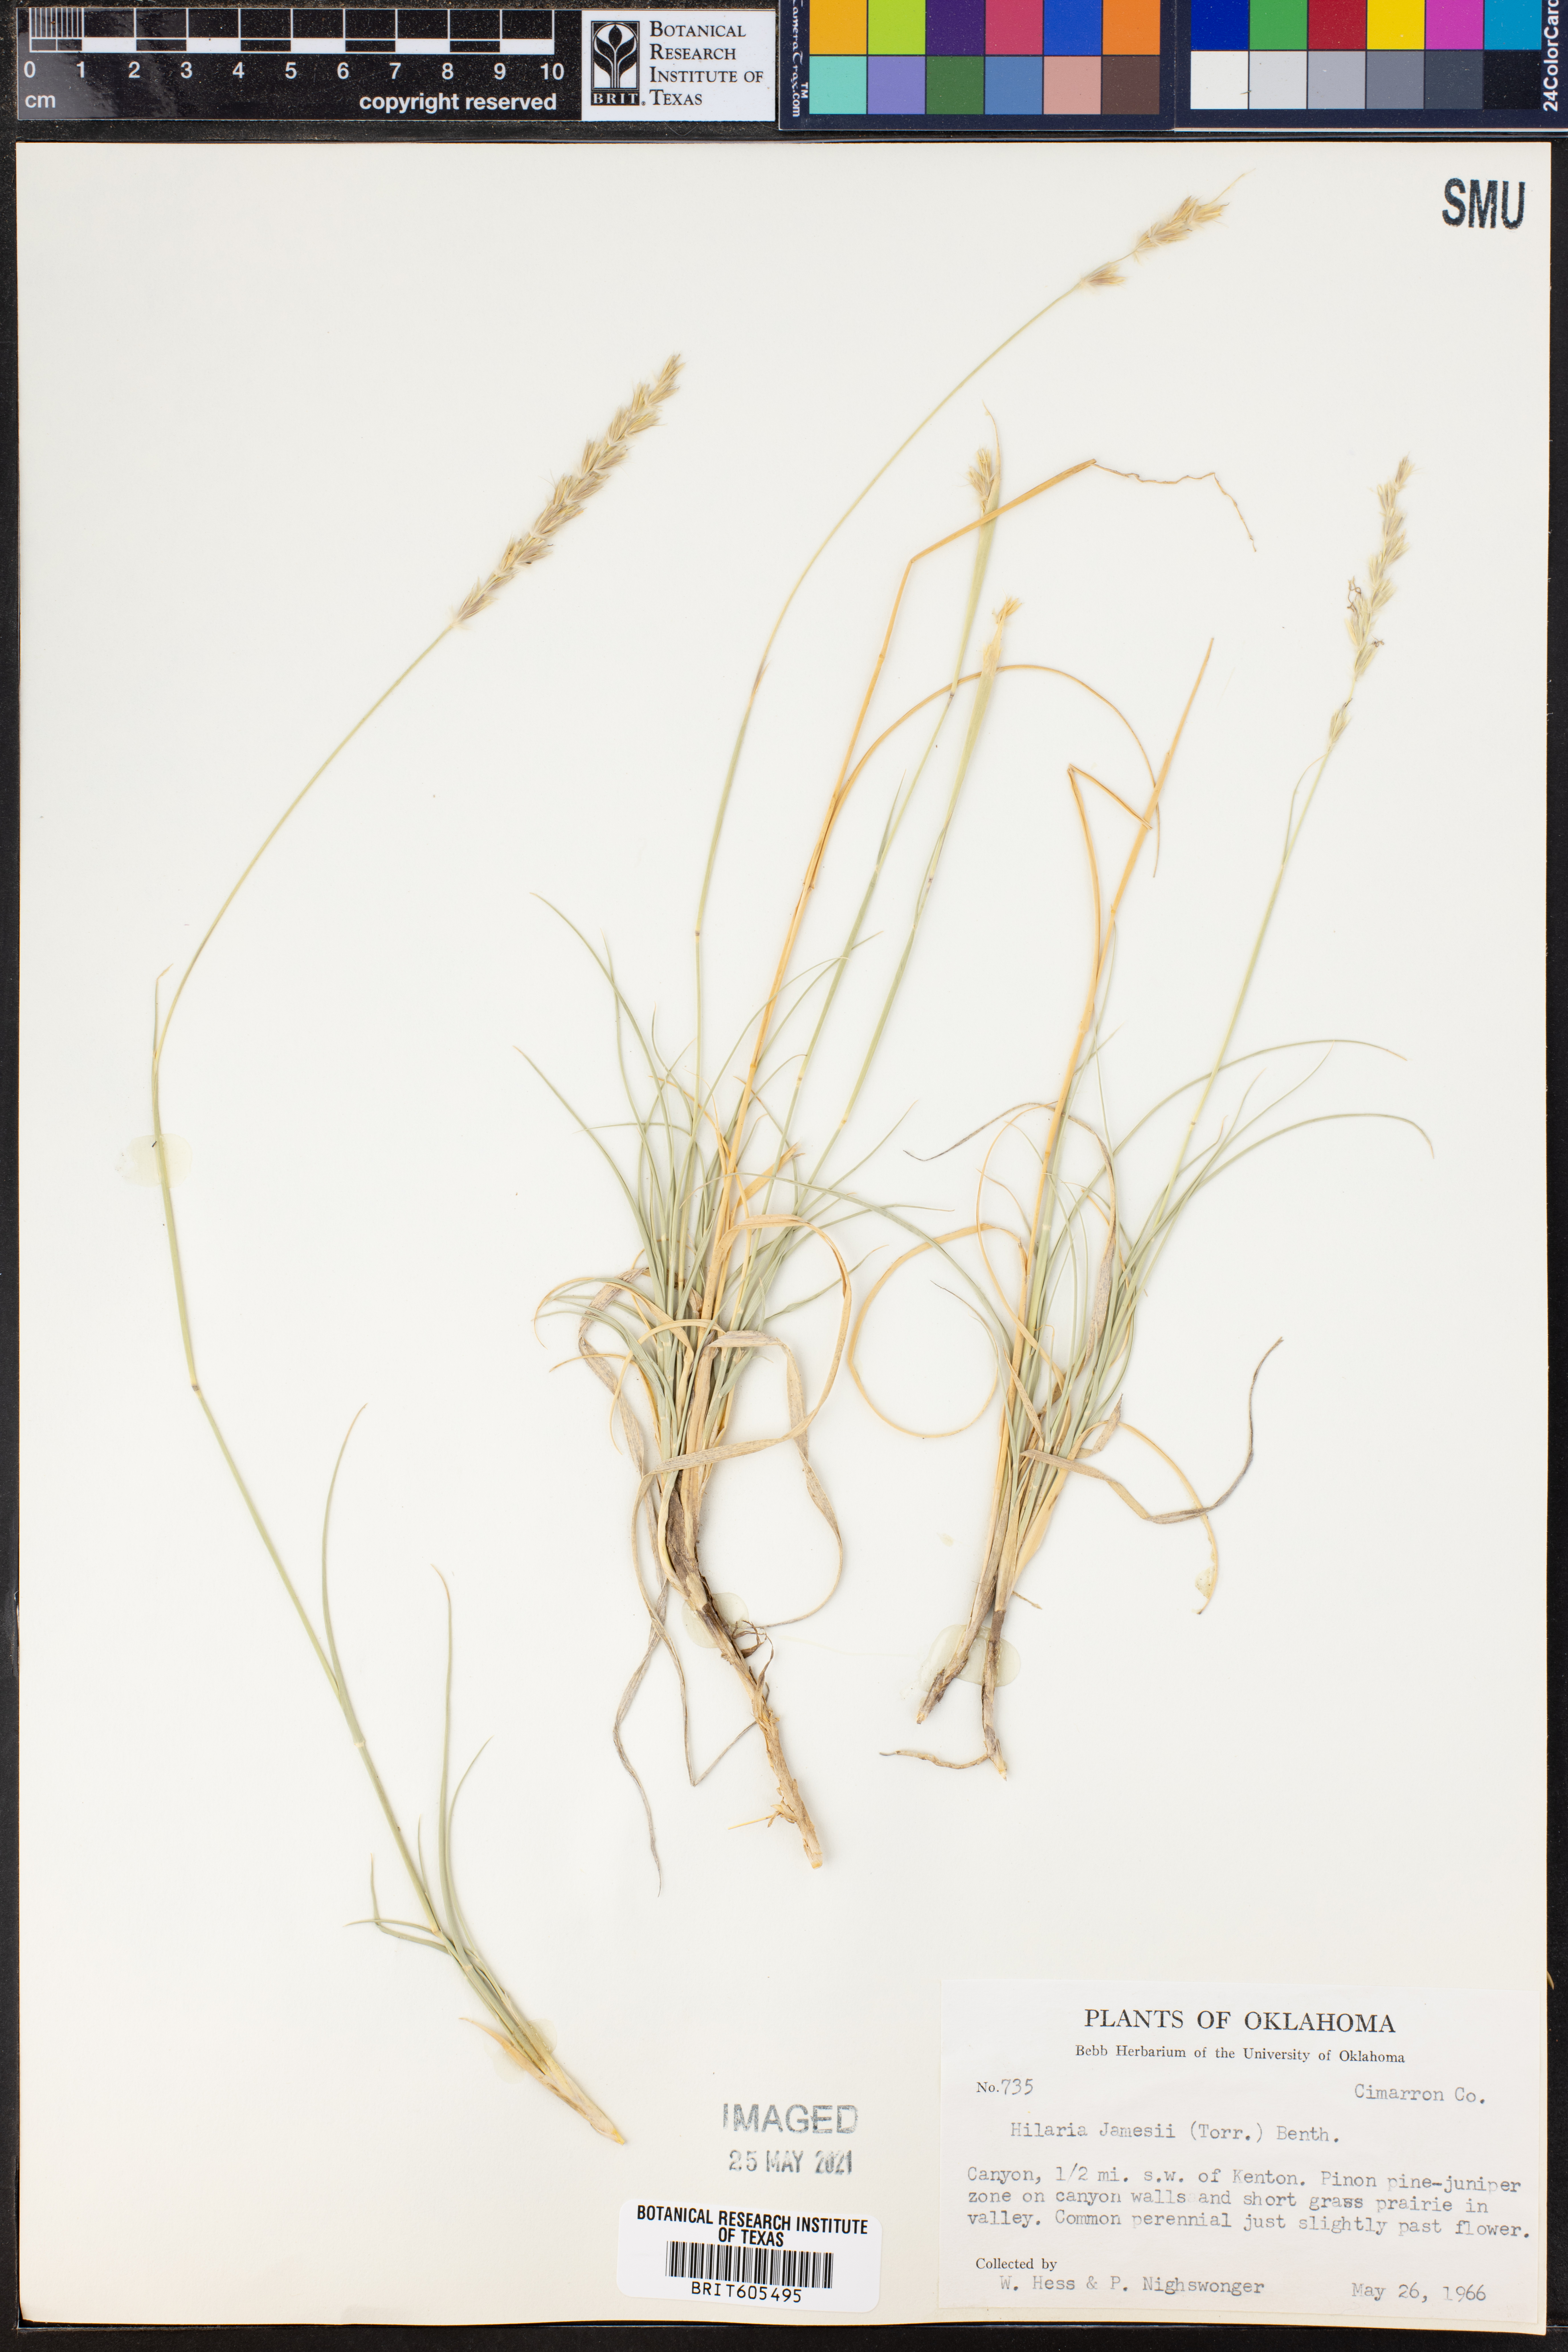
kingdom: Plantae
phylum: Tracheophyta
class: Liliopsida
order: Poales
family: Poaceae
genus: Hilaria
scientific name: Hilaria jamesii
